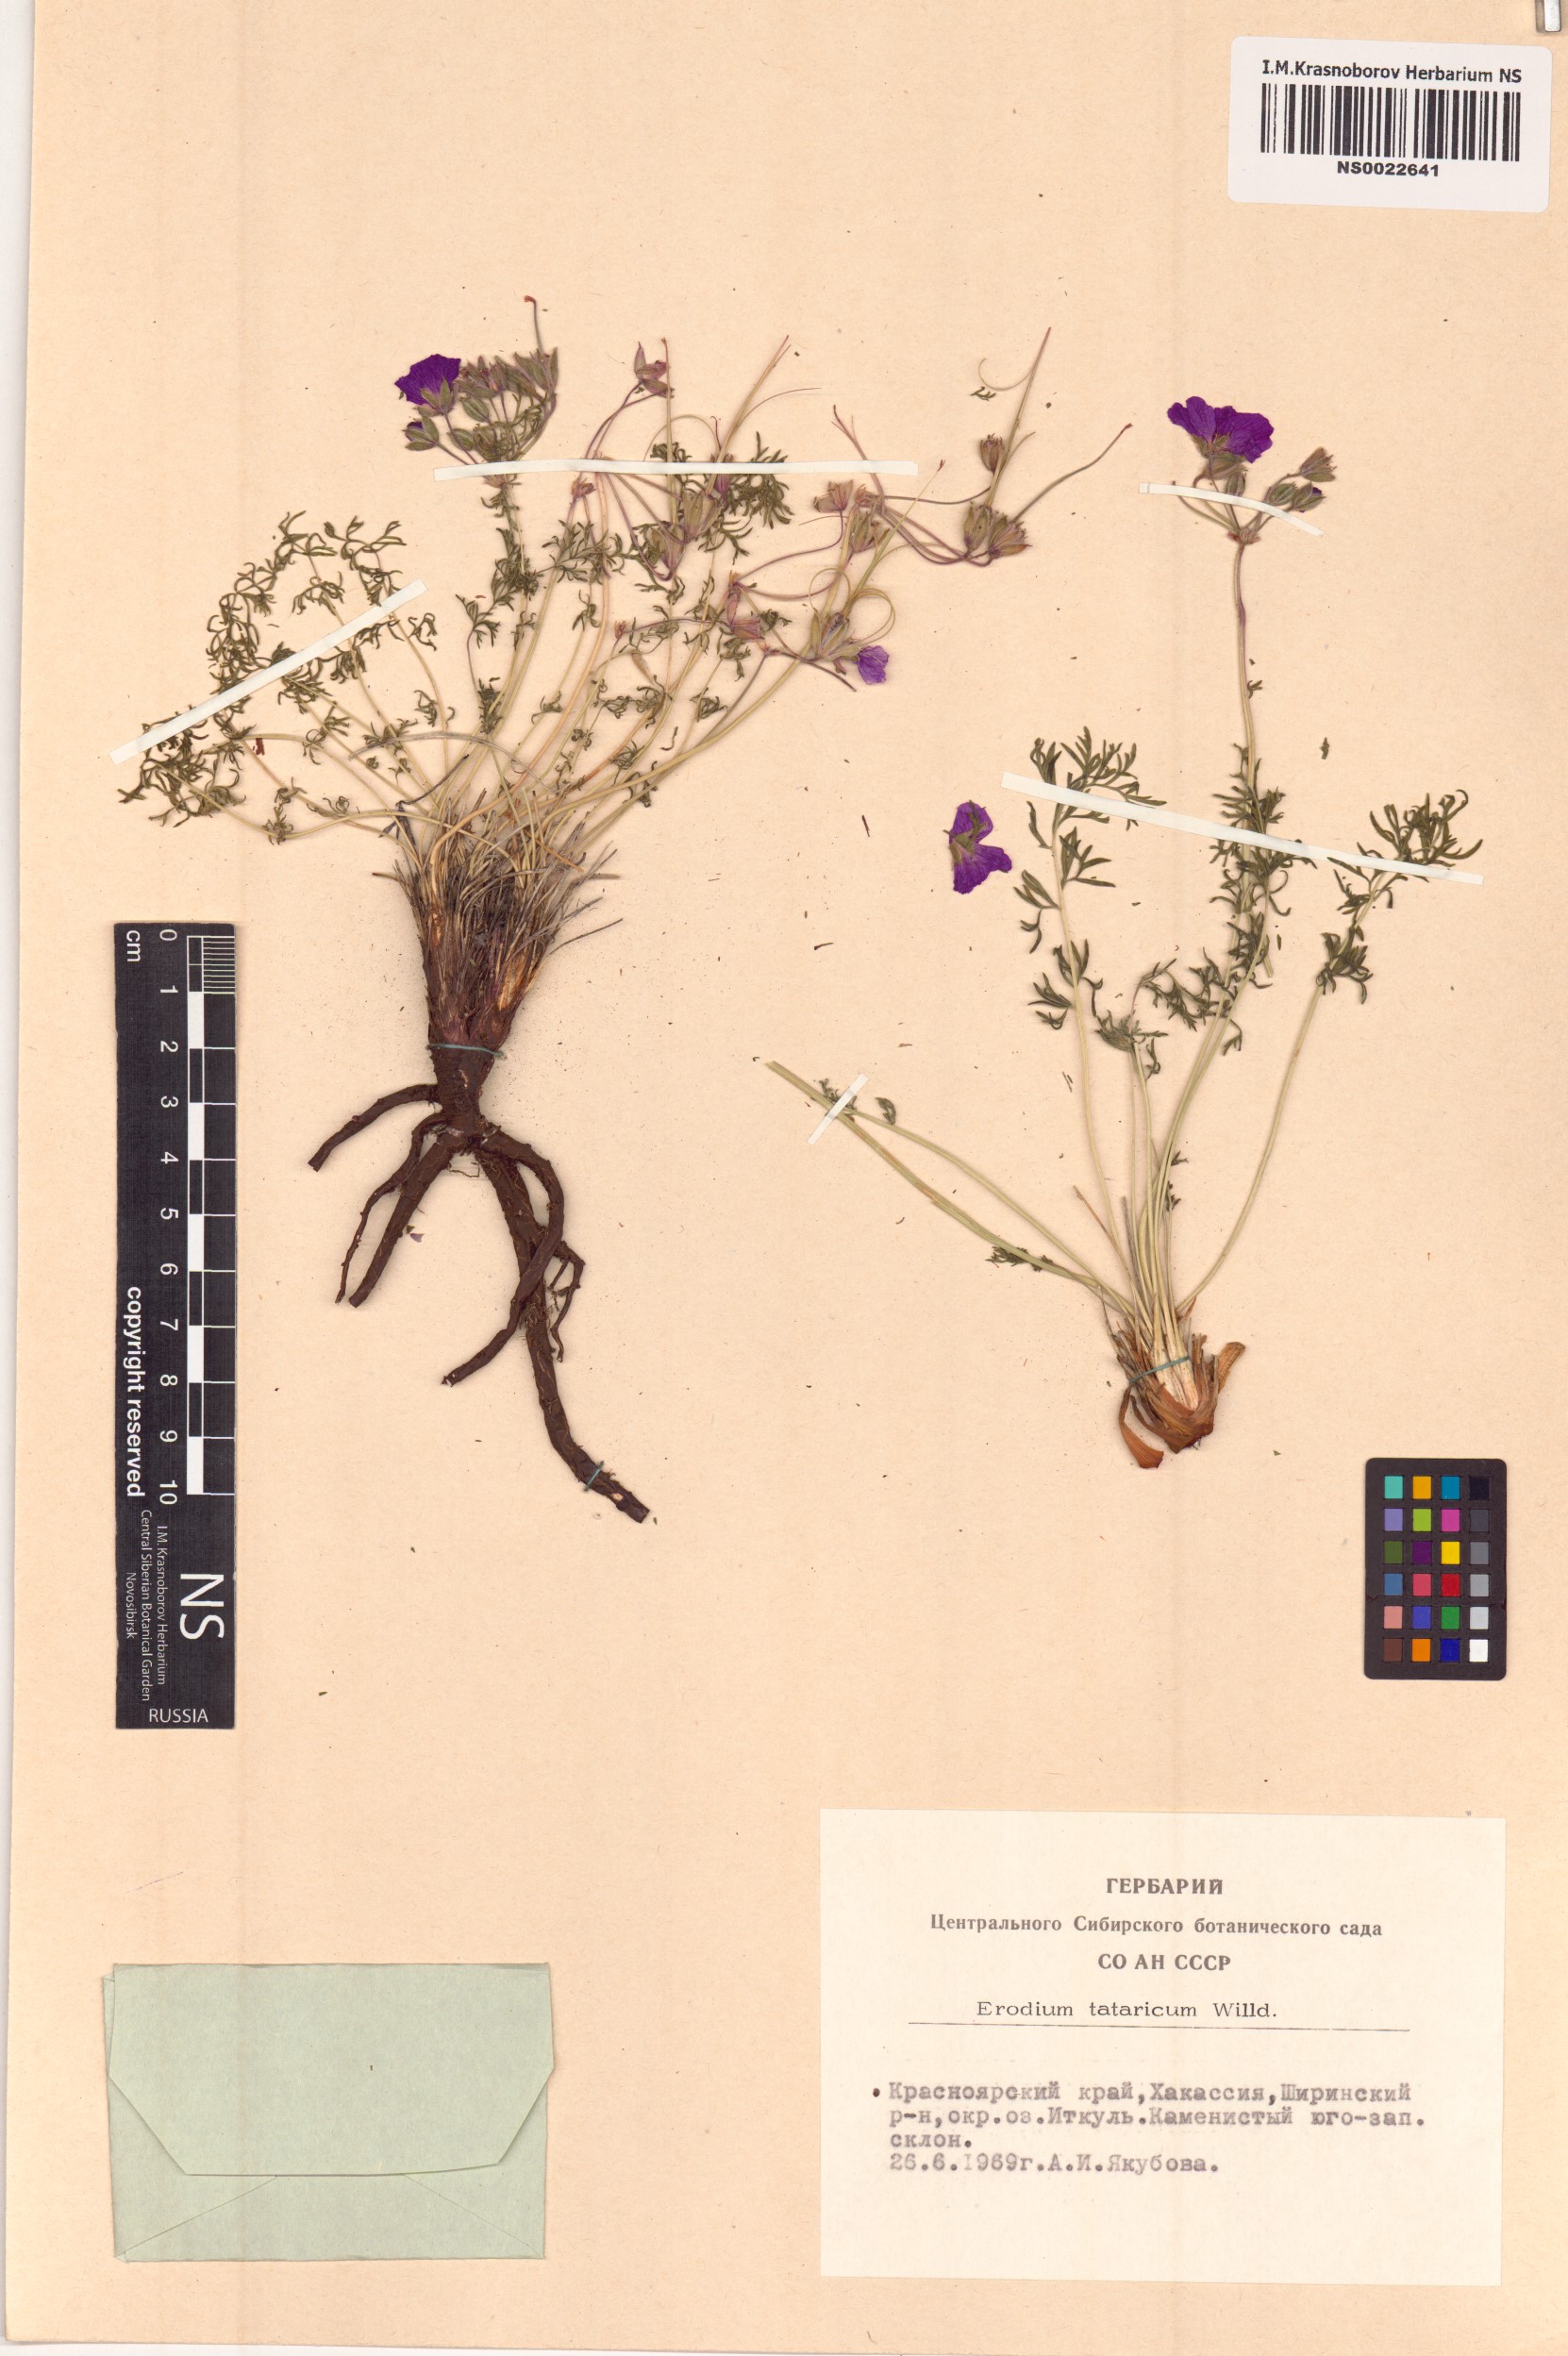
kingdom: Plantae
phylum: Tracheophyta
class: Magnoliopsida
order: Geraniales
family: Geraniaceae
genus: Erodium
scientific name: Erodium tataricum
